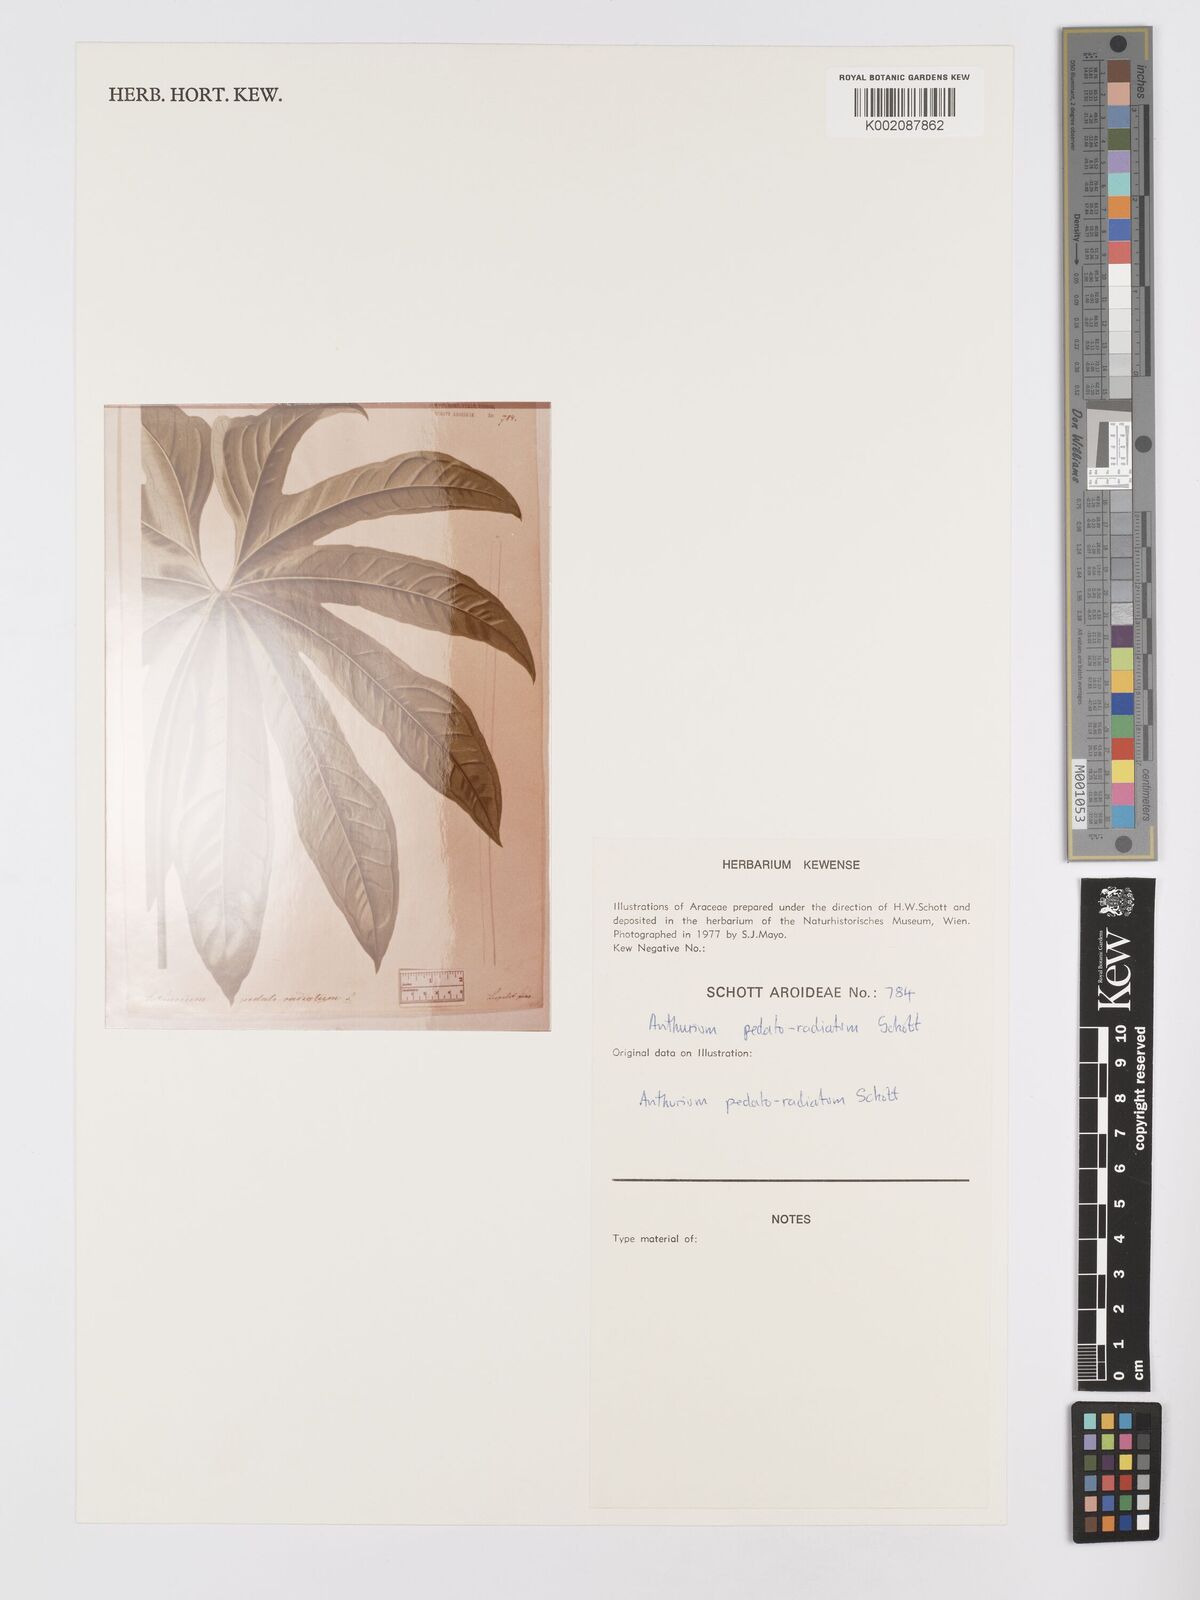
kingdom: Plantae
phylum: Tracheophyta
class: Liliopsida
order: Alismatales
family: Araceae
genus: Anthurium
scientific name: Anthurium pedatoradiatum
